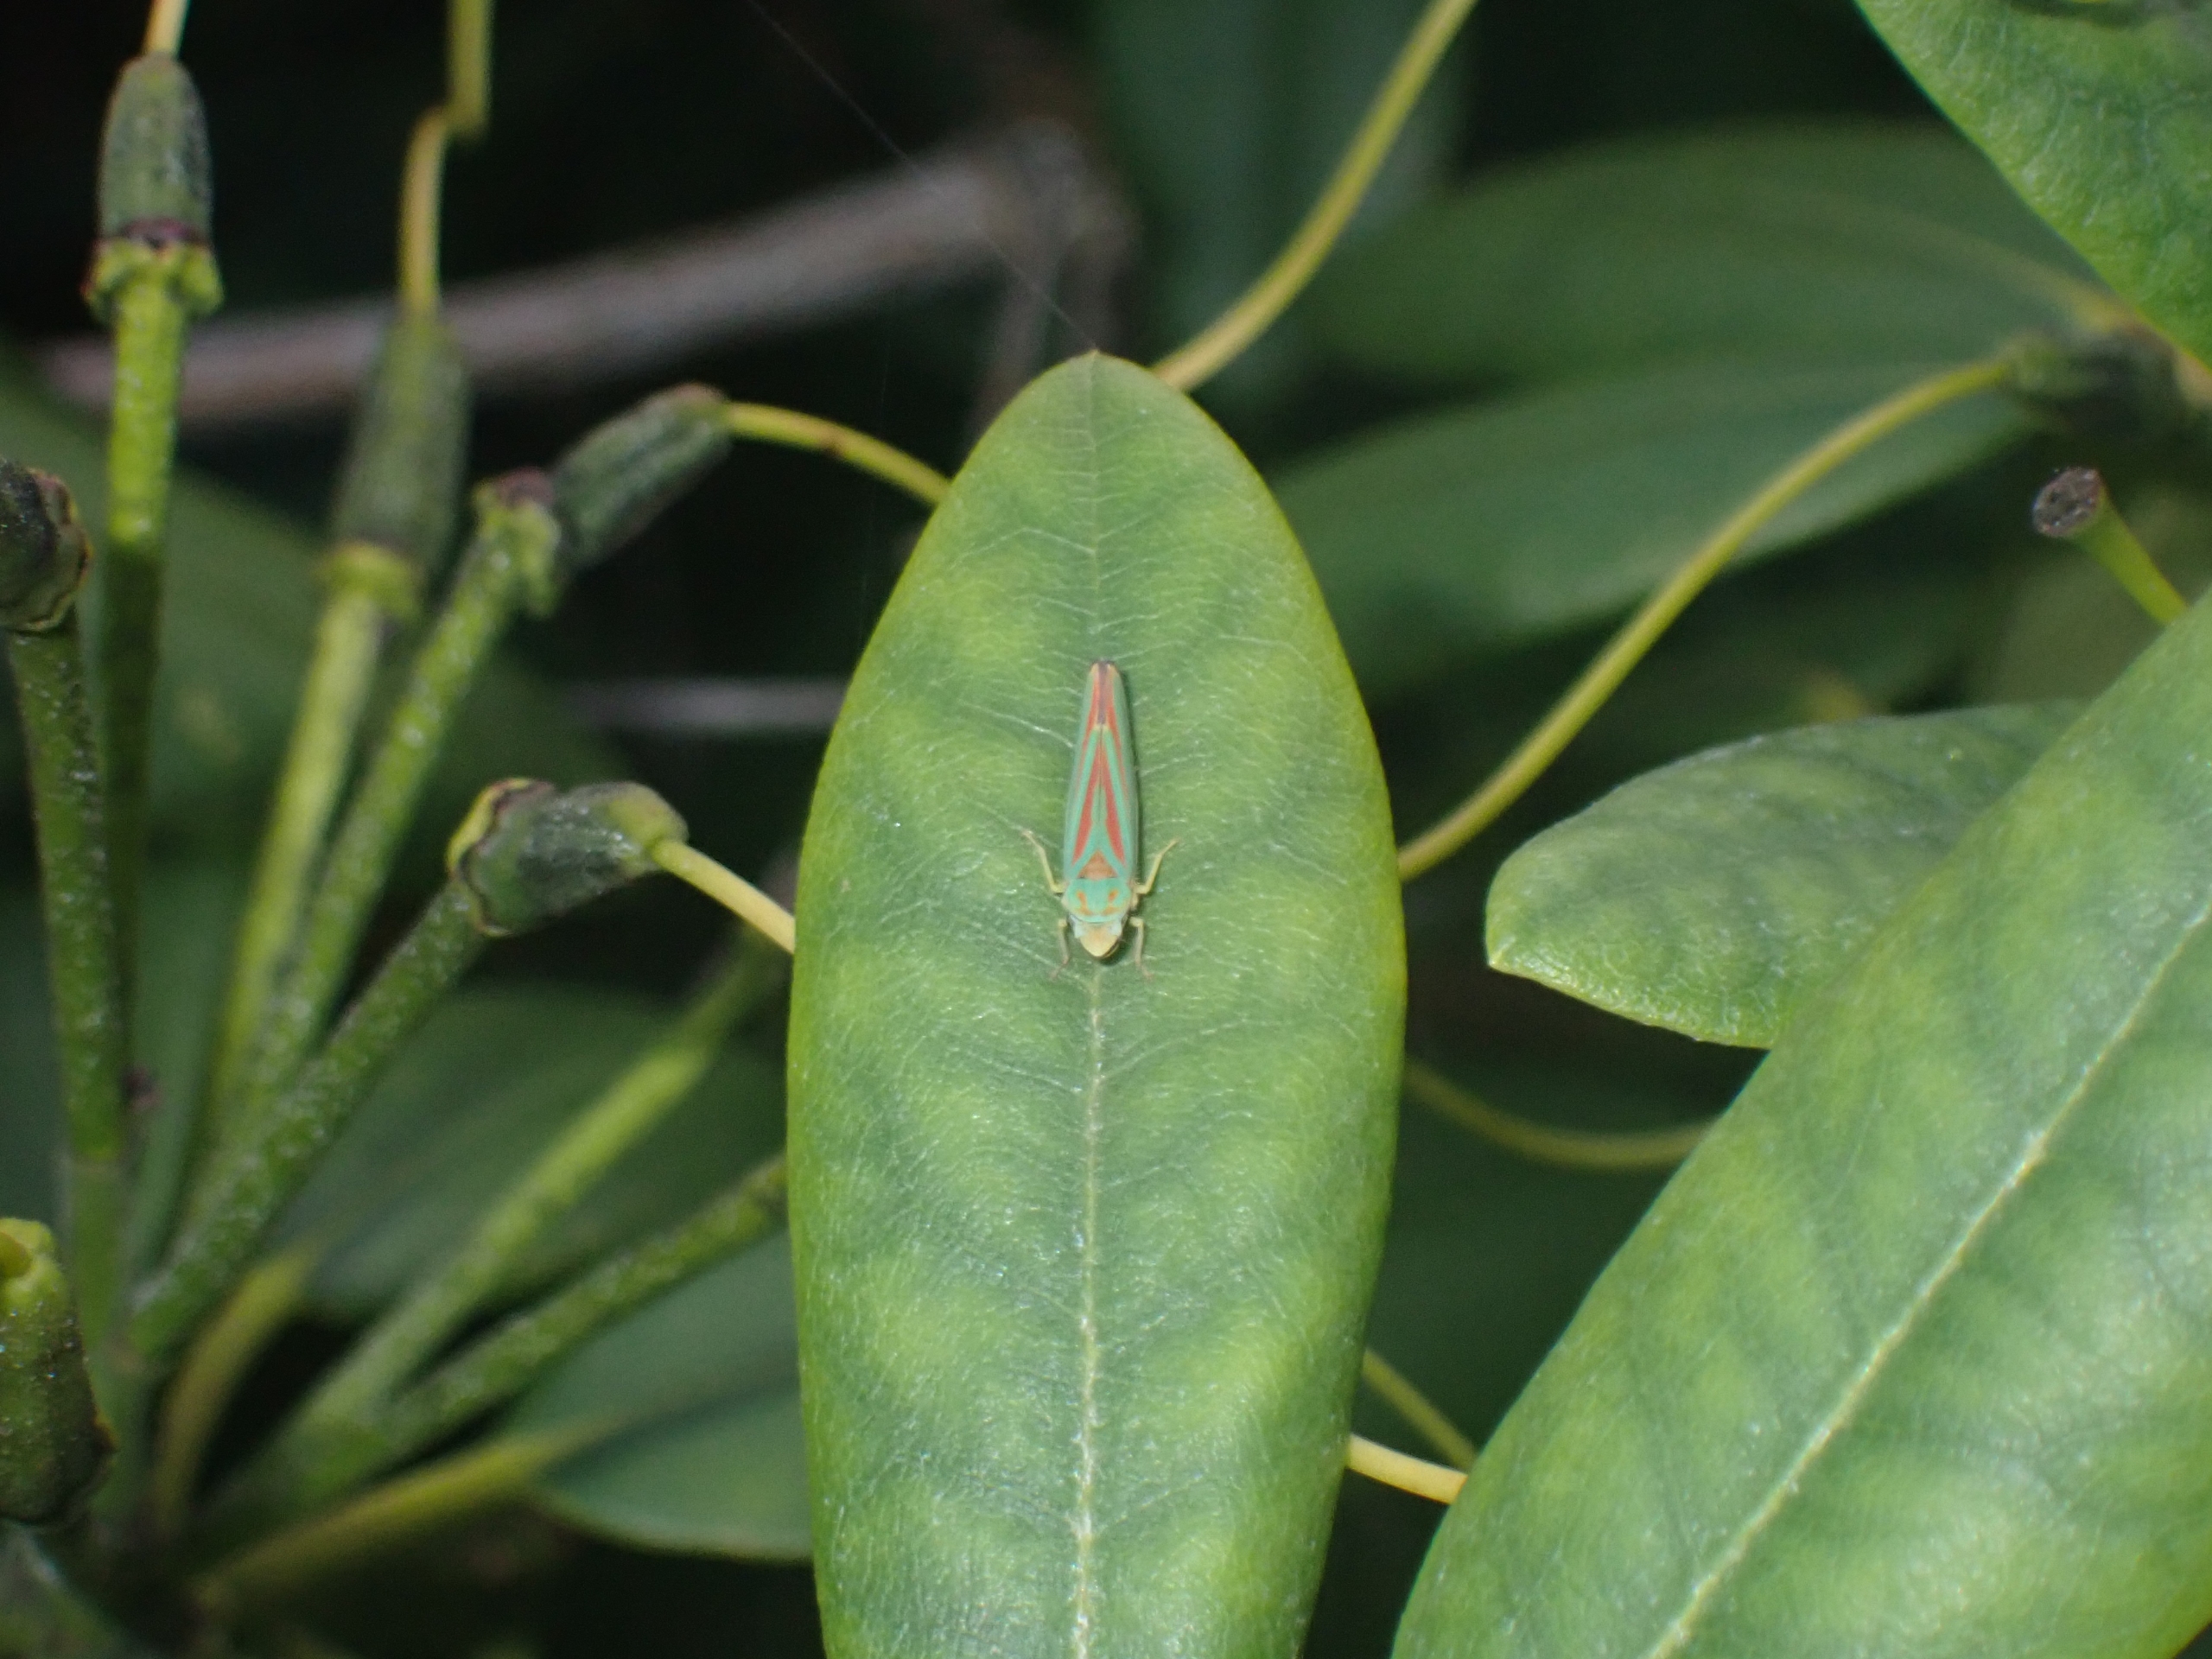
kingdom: Animalia
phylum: Arthropoda
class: Insecta
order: Hemiptera
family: Cicadellidae
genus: Graphocephala
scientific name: Graphocephala fennahi
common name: Rododendroncikade
